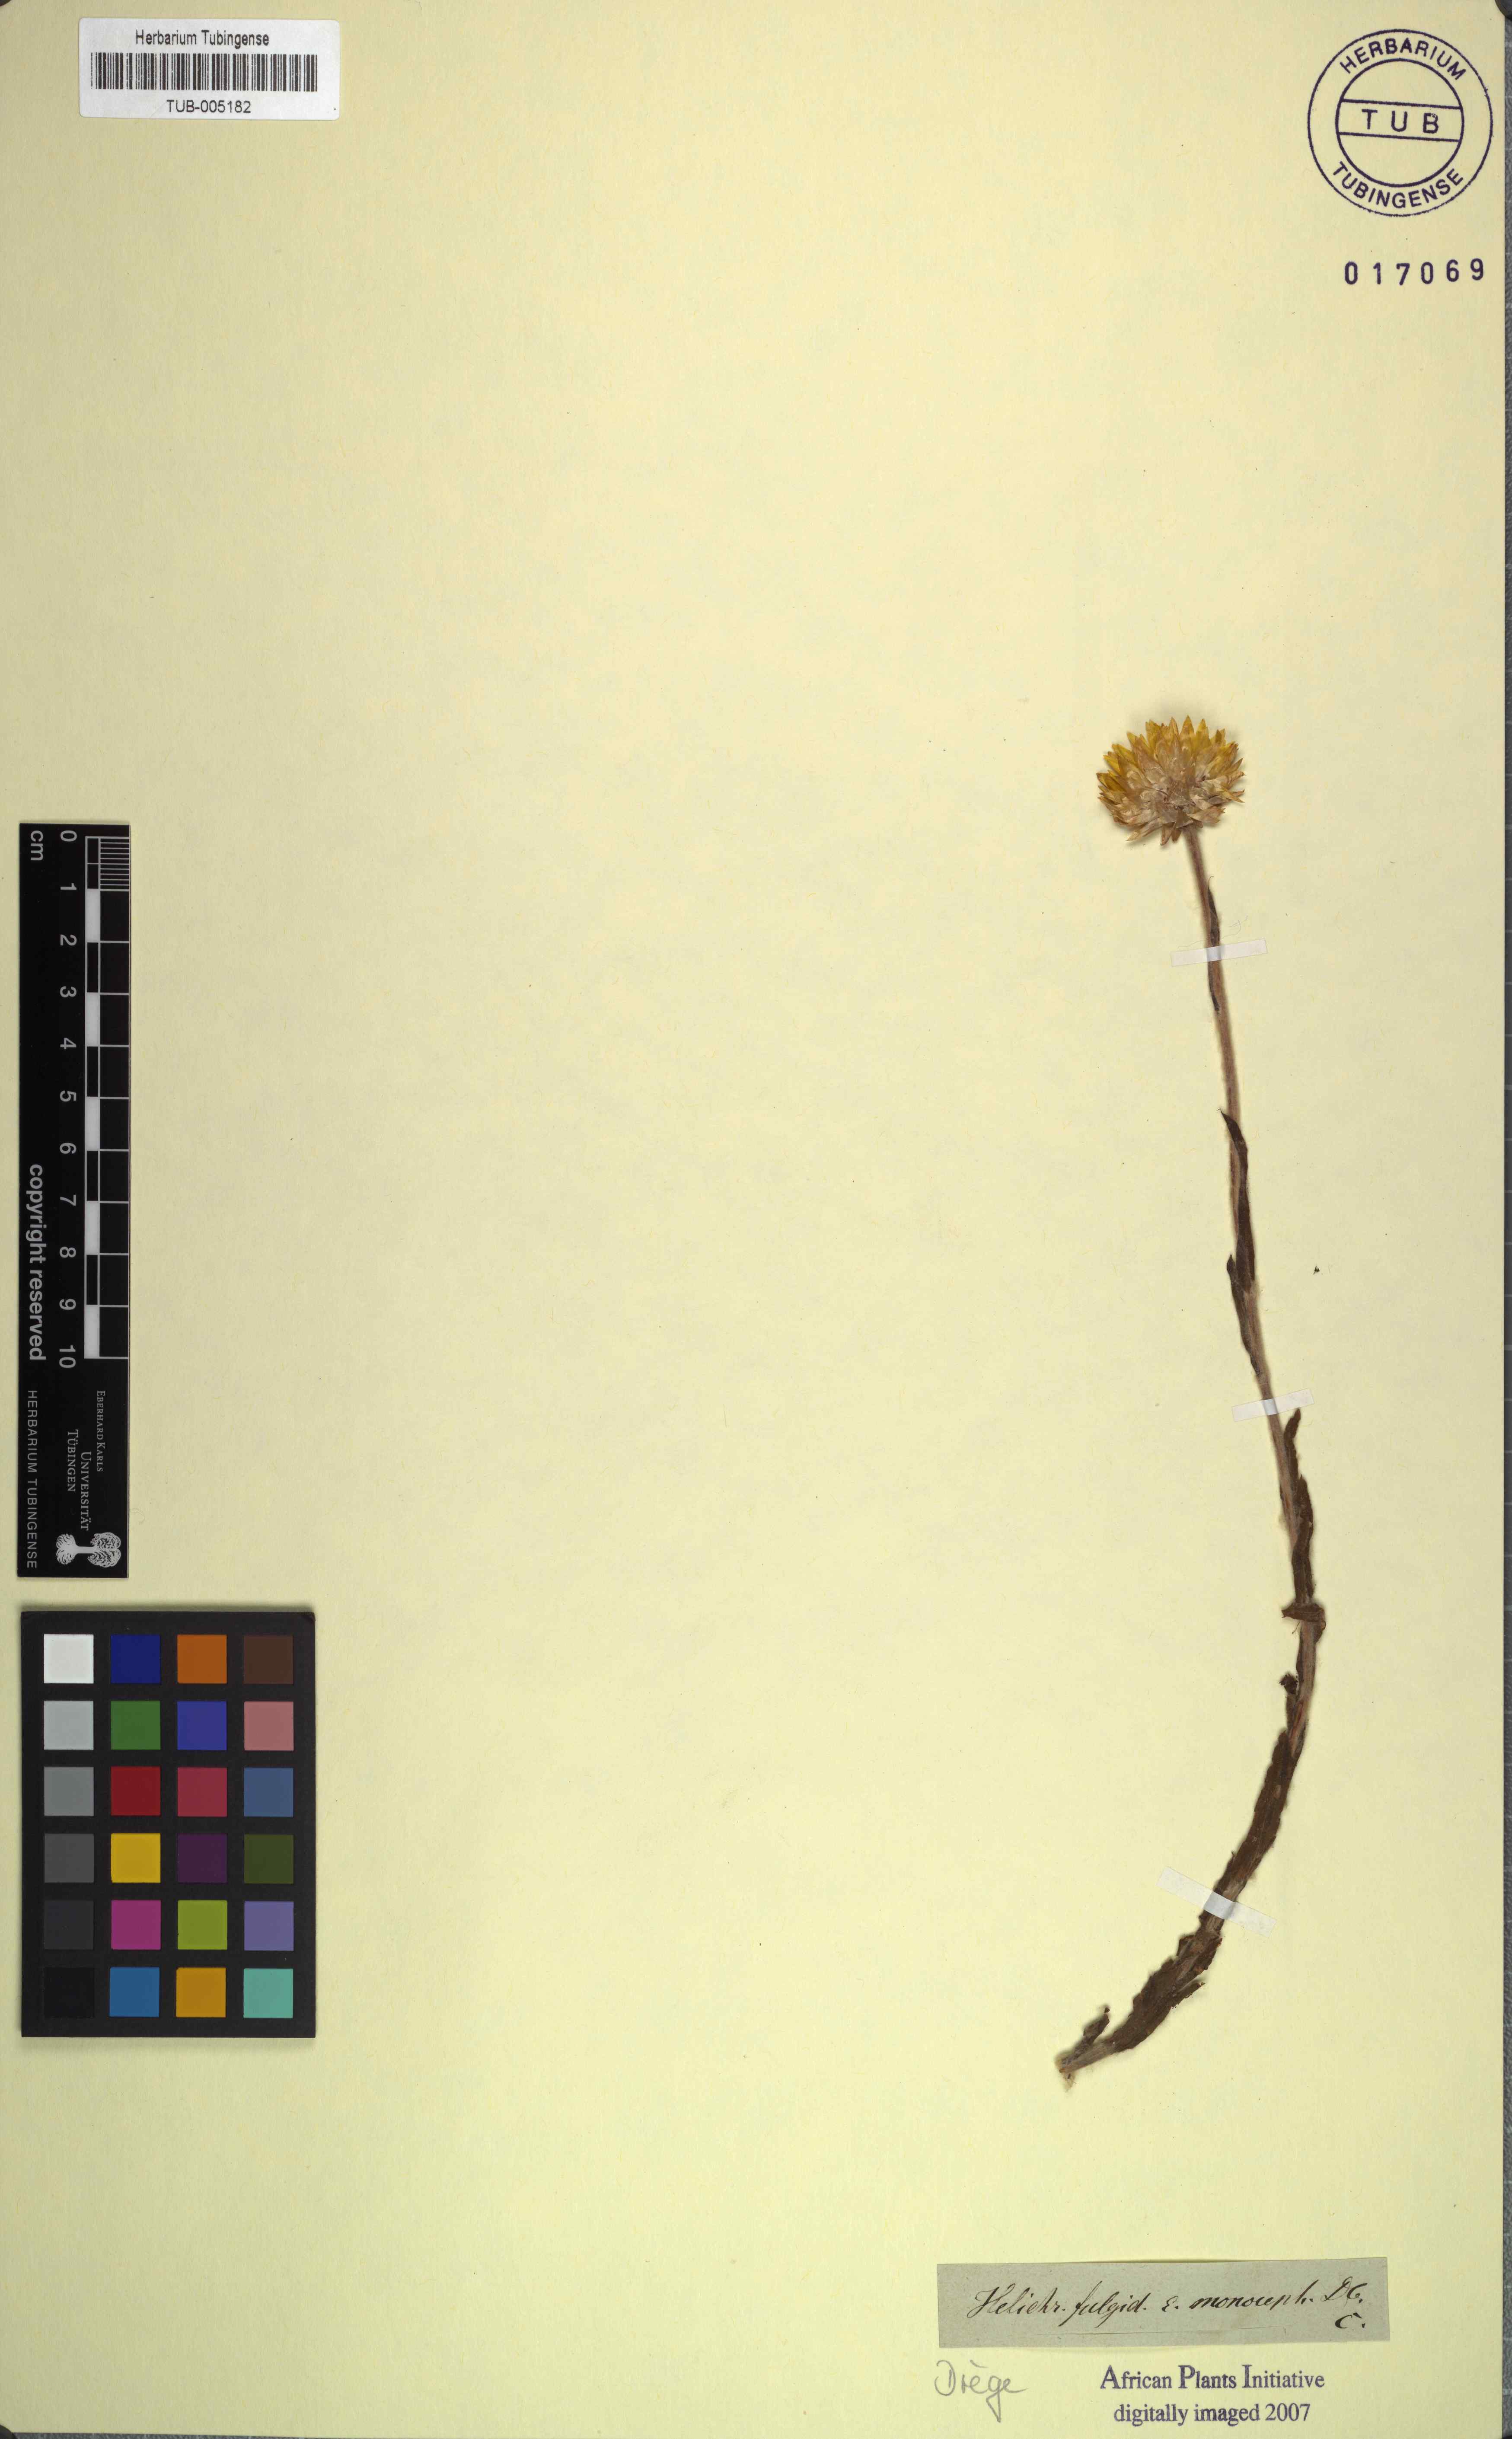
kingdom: Plantae
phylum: Tracheophyta
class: Magnoliopsida
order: Asterales
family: Asteraceae
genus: Helichrysum
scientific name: Helichrysum aureum
